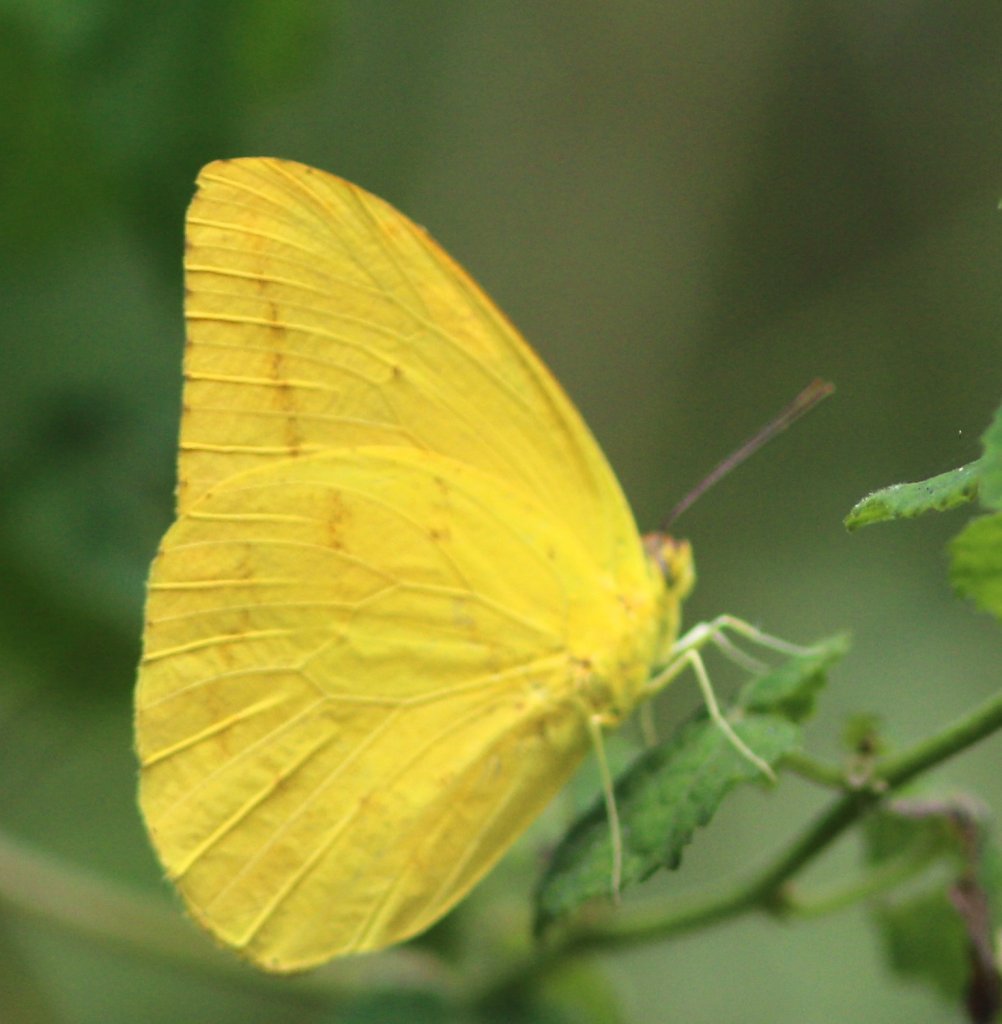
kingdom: Animalia
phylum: Arthropoda
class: Insecta
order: Lepidoptera
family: Pieridae
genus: Phoebis
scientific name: Phoebis agarithe
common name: Large Orange Sulphur
